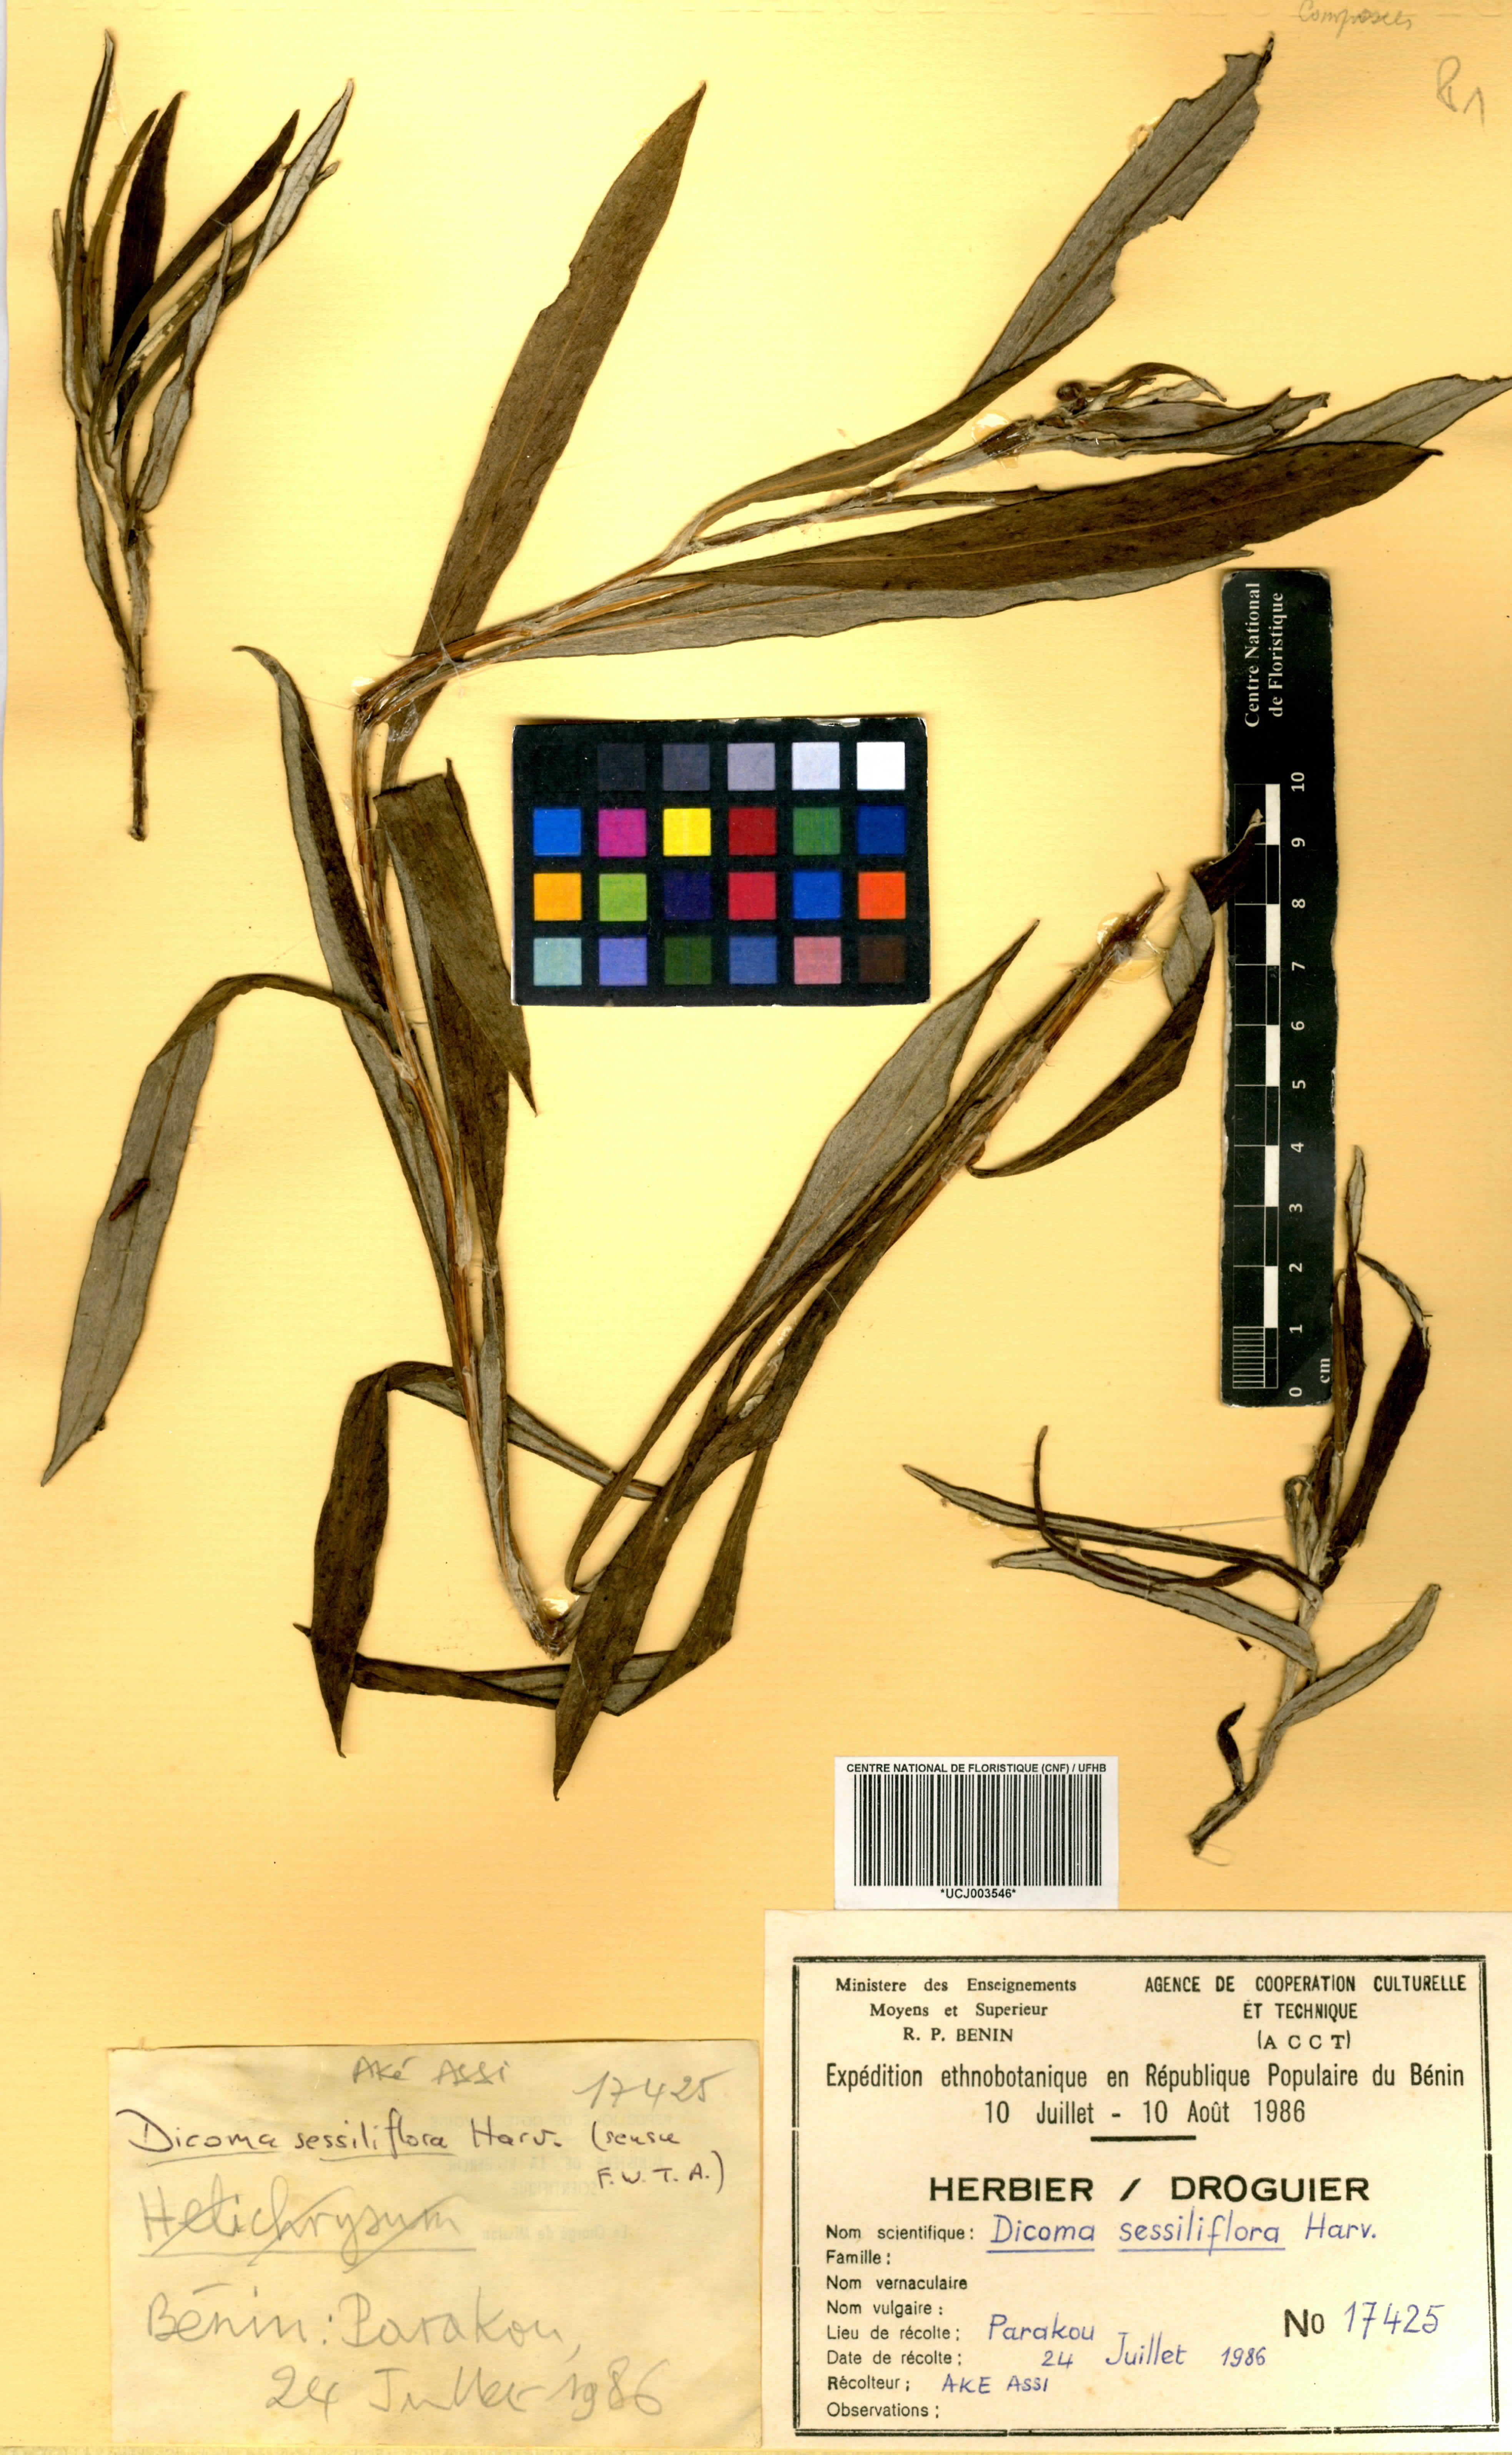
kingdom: Plantae
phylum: Tracheophyta
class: Magnoliopsida
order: Asterales
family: Asteraceae
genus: Macledium
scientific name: Macledium sessiliflorum
